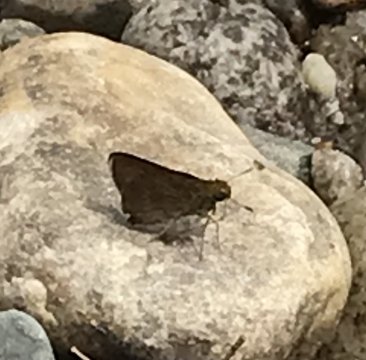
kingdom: Animalia
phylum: Arthropoda
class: Insecta
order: Lepidoptera
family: Hesperiidae
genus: Euphyes
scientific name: Euphyes vestris
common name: Dun Skipper
